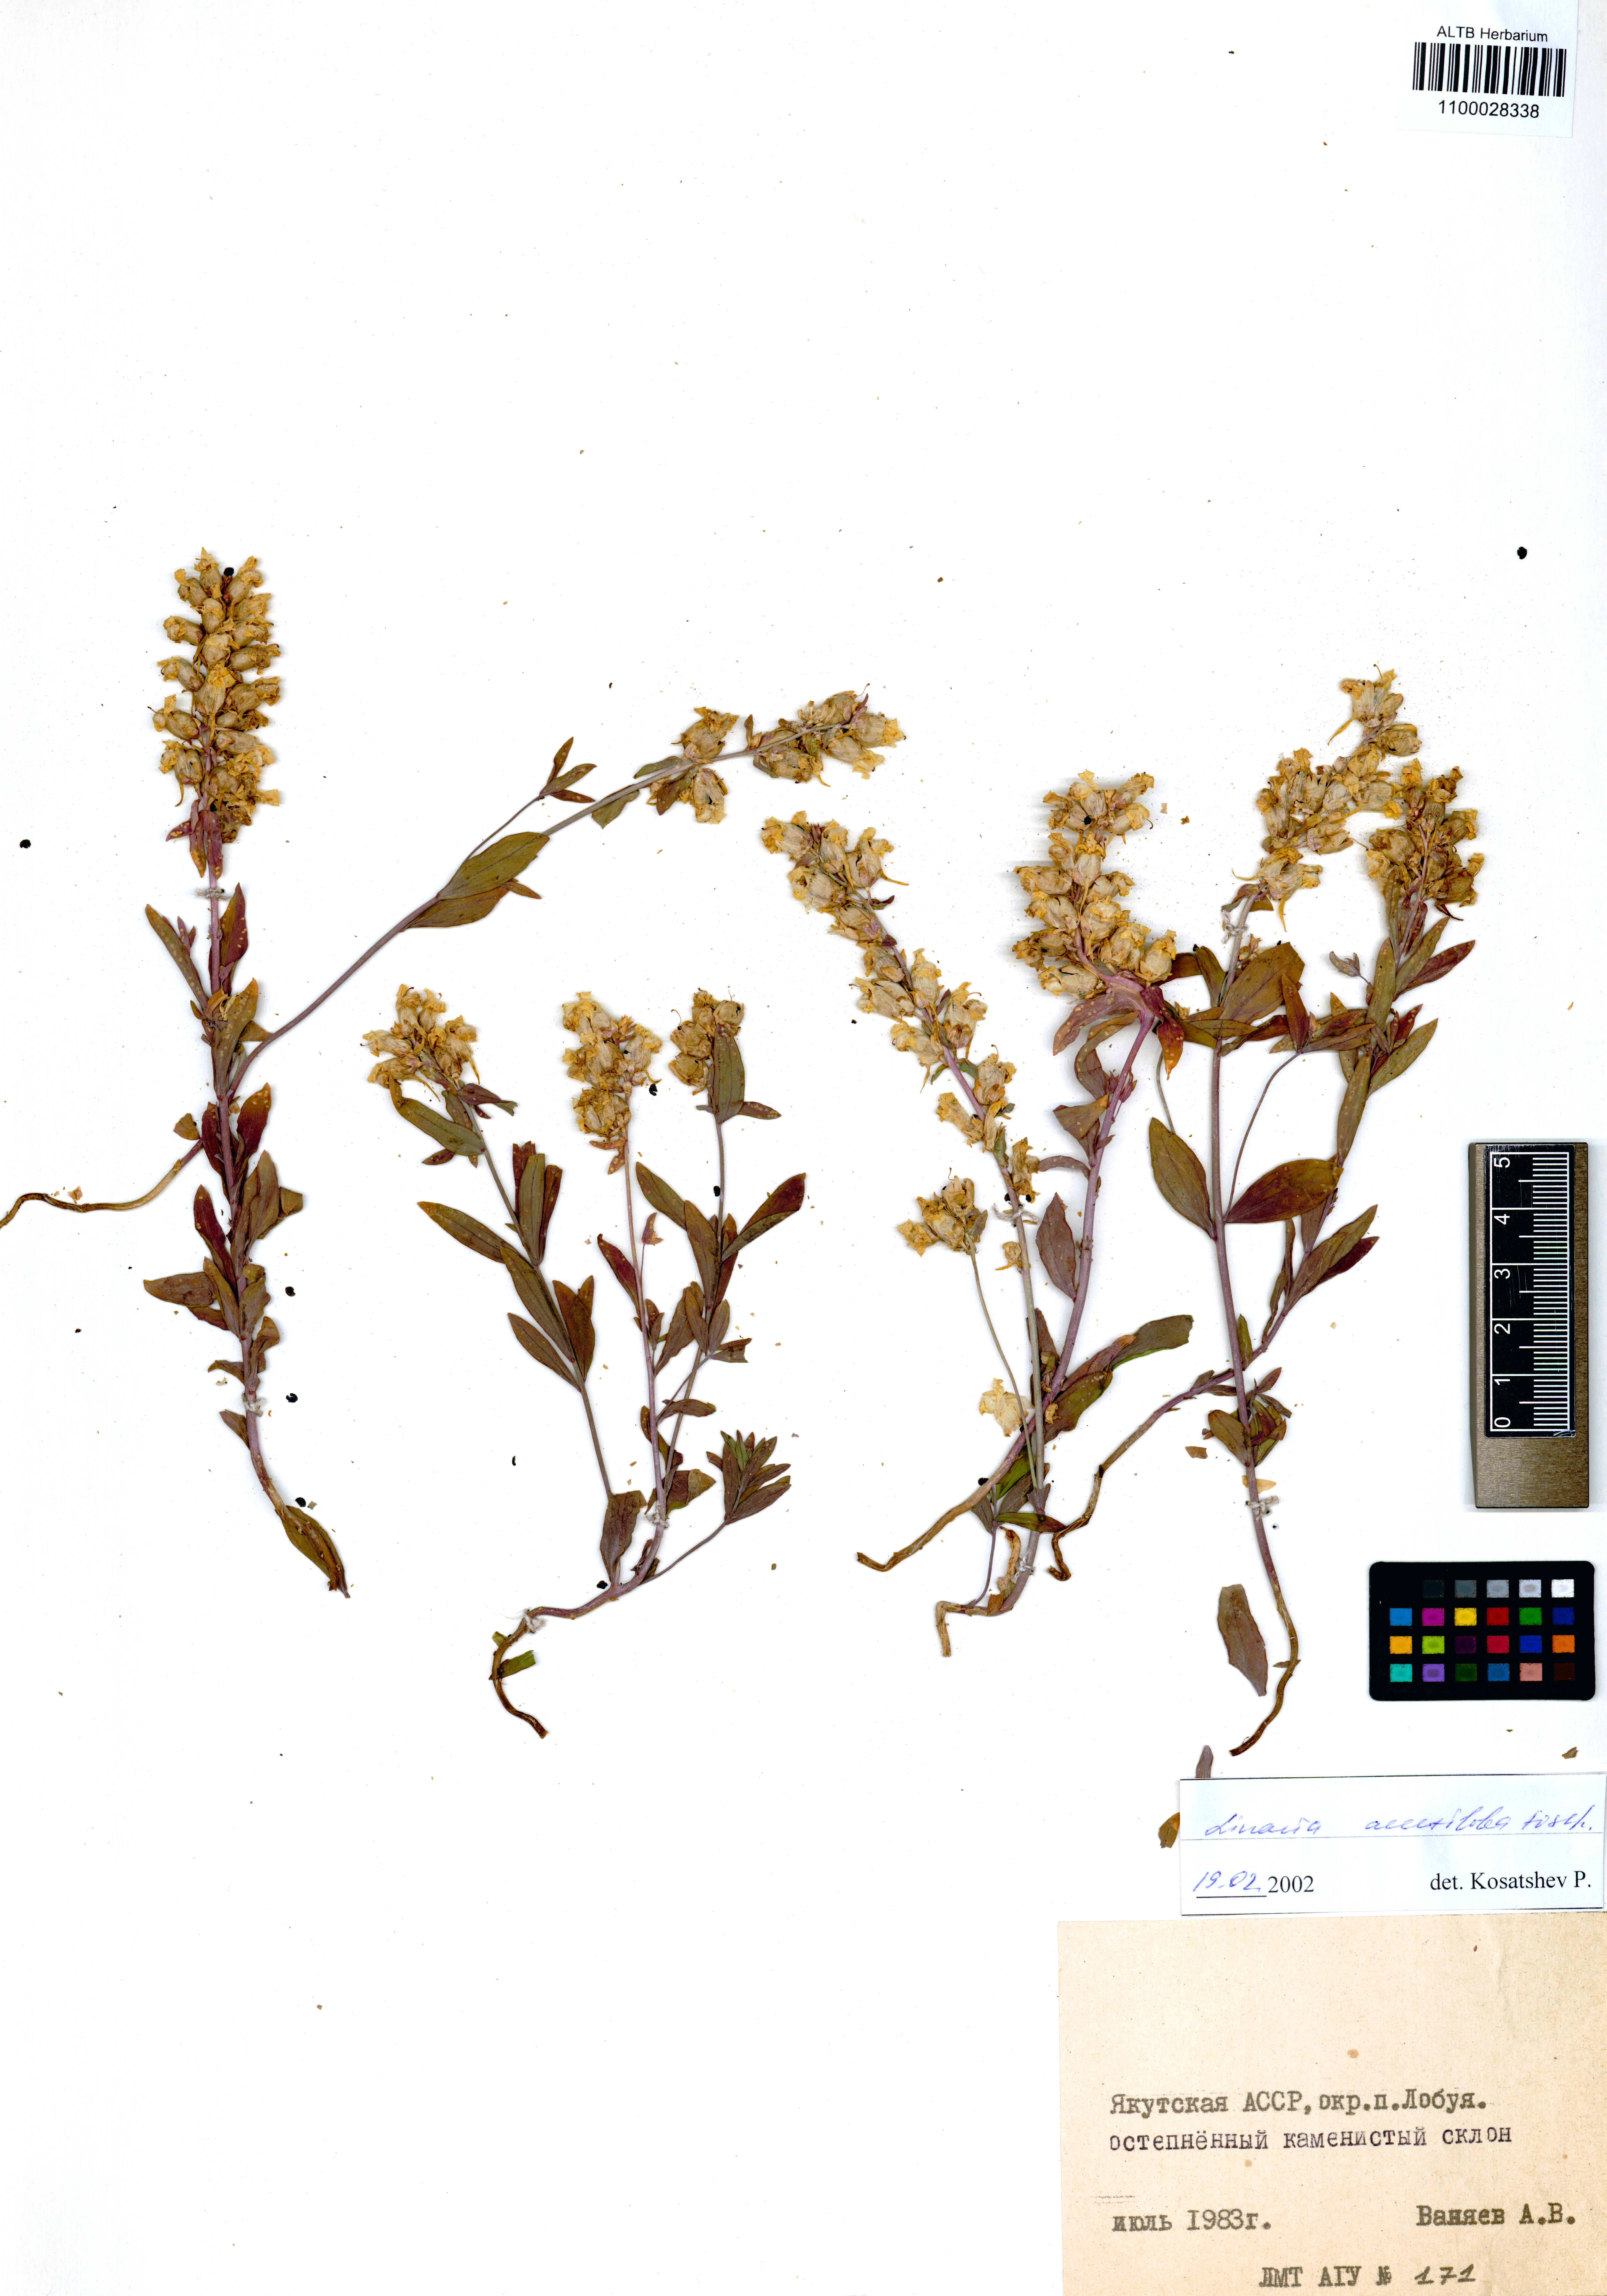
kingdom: Plantae
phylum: Tracheophyta
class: Magnoliopsida
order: Lamiales
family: Plantaginaceae
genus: Linaria
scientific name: Linaria acutiloba
